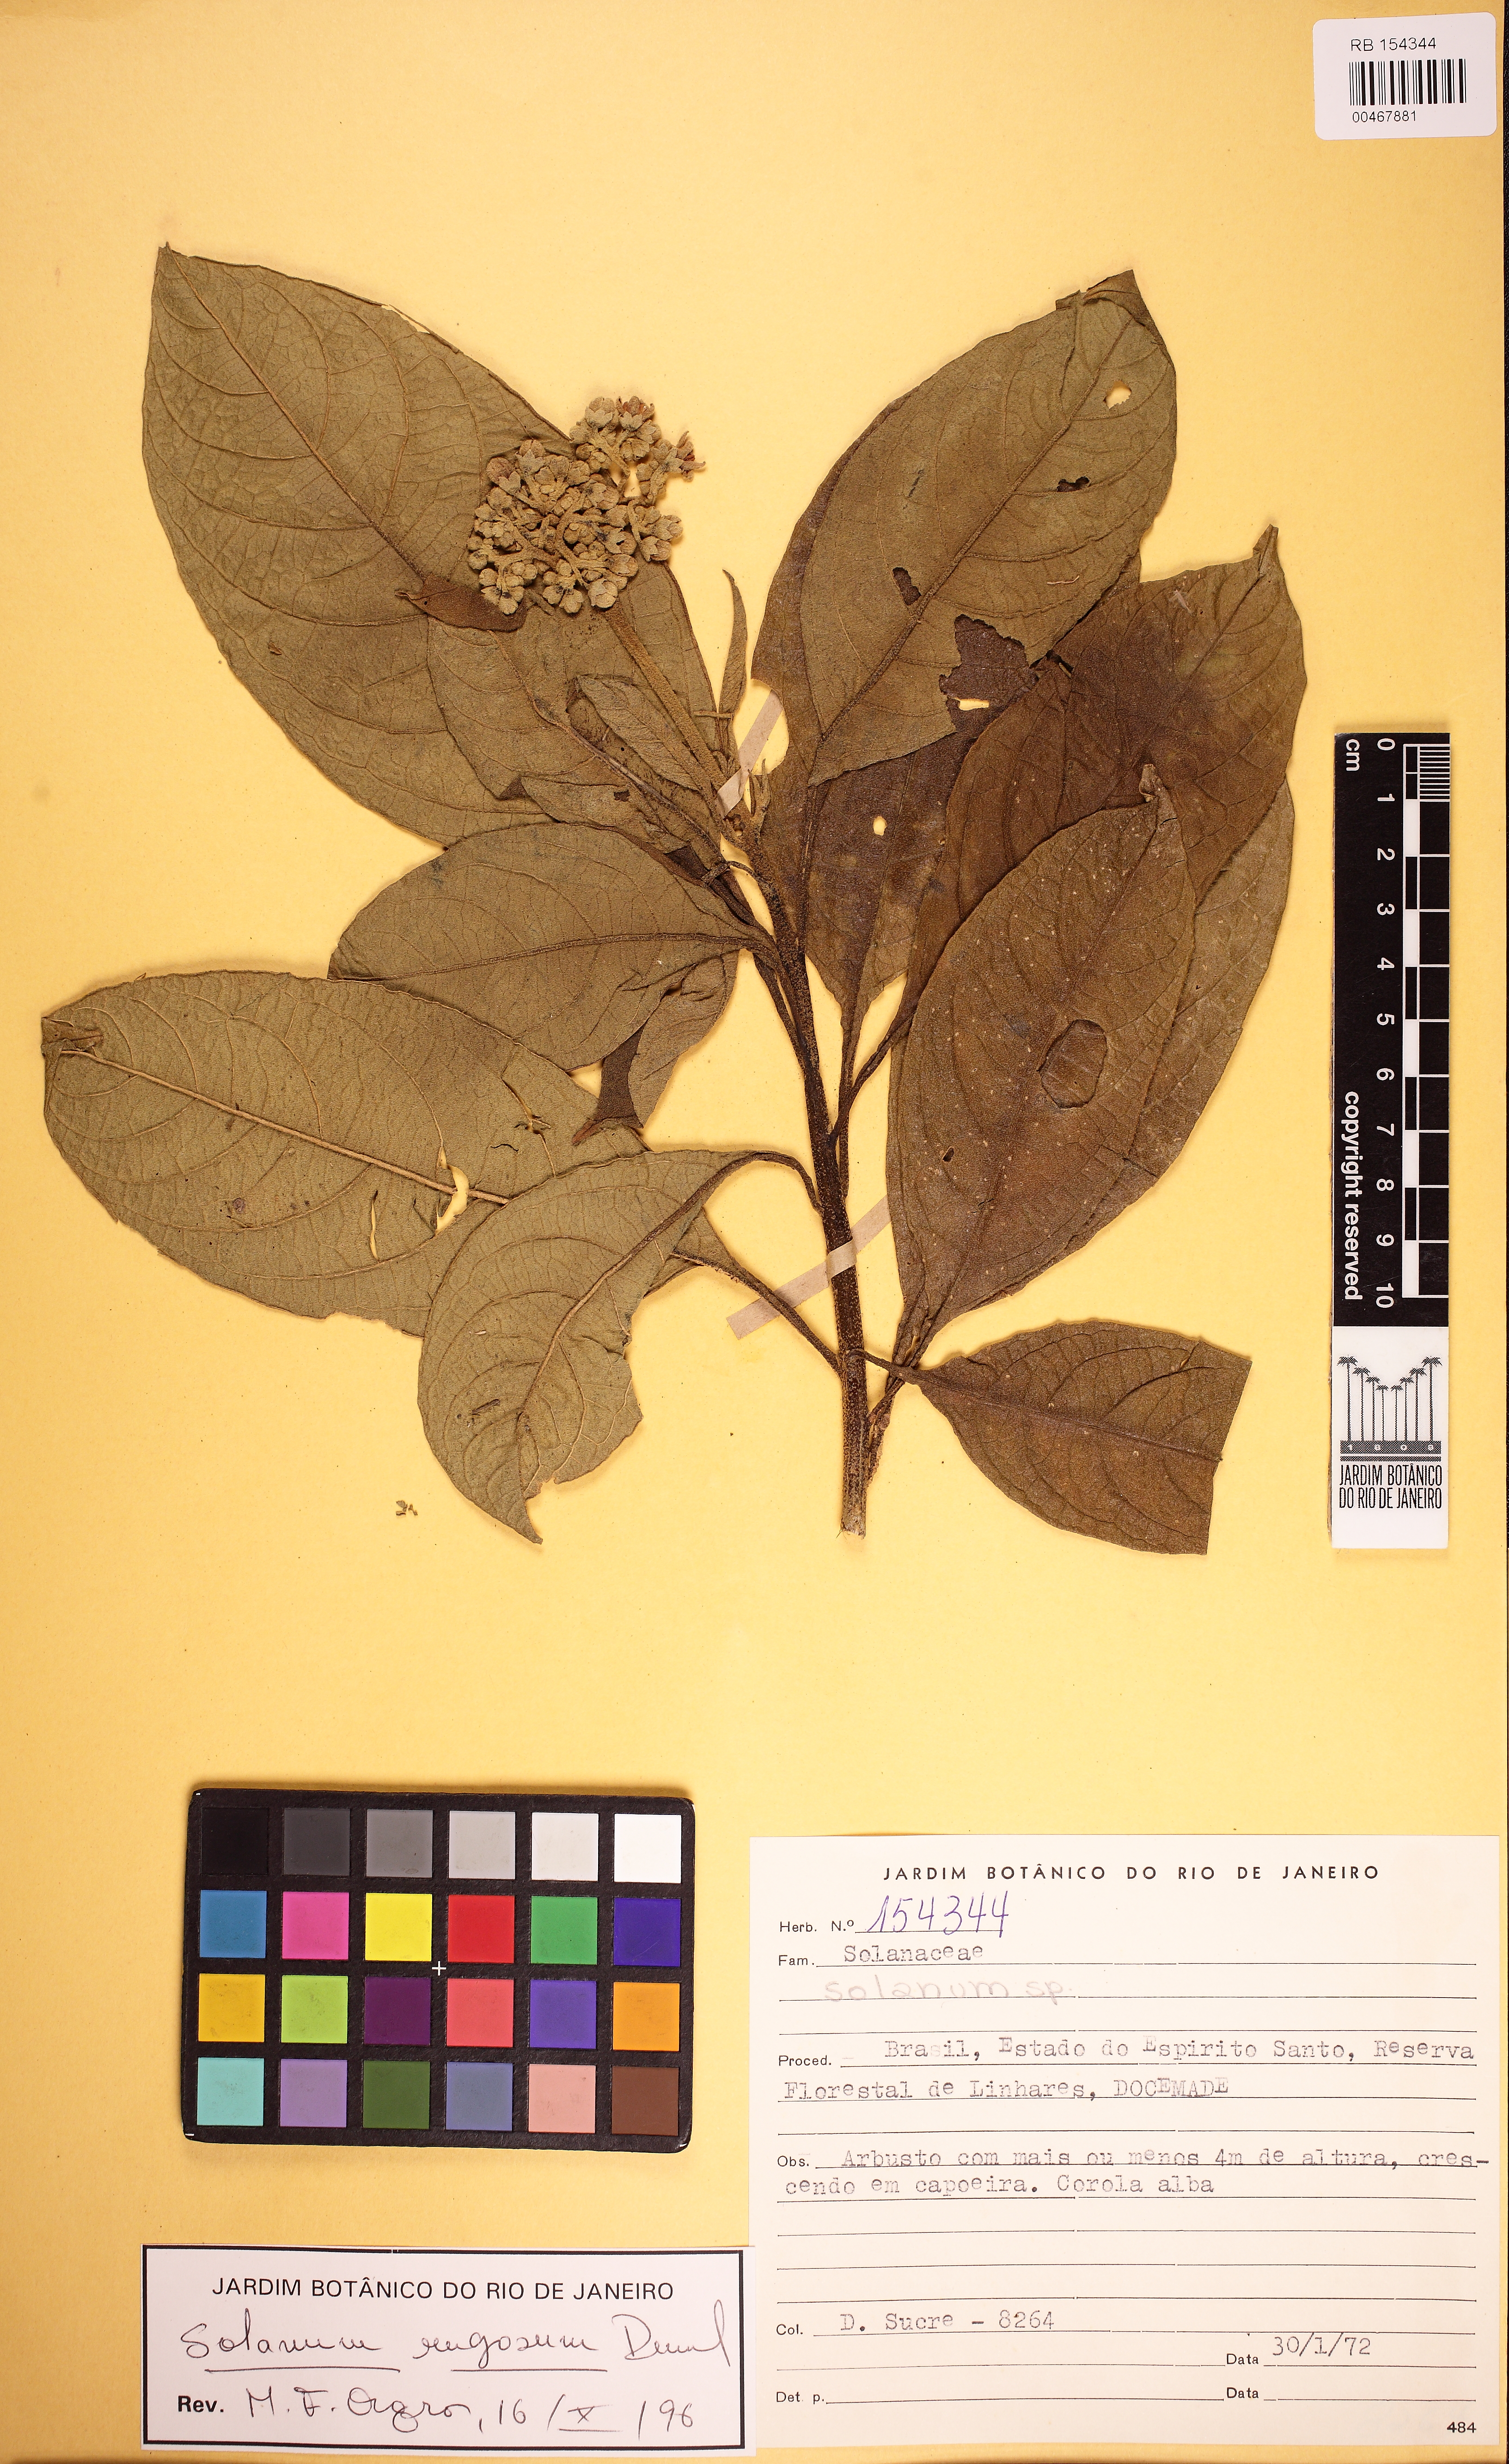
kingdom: Plantae
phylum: Tracheophyta
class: Magnoliopsida
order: Solanales
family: Solanaceae
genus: Solanum
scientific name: Solanum rugosum
